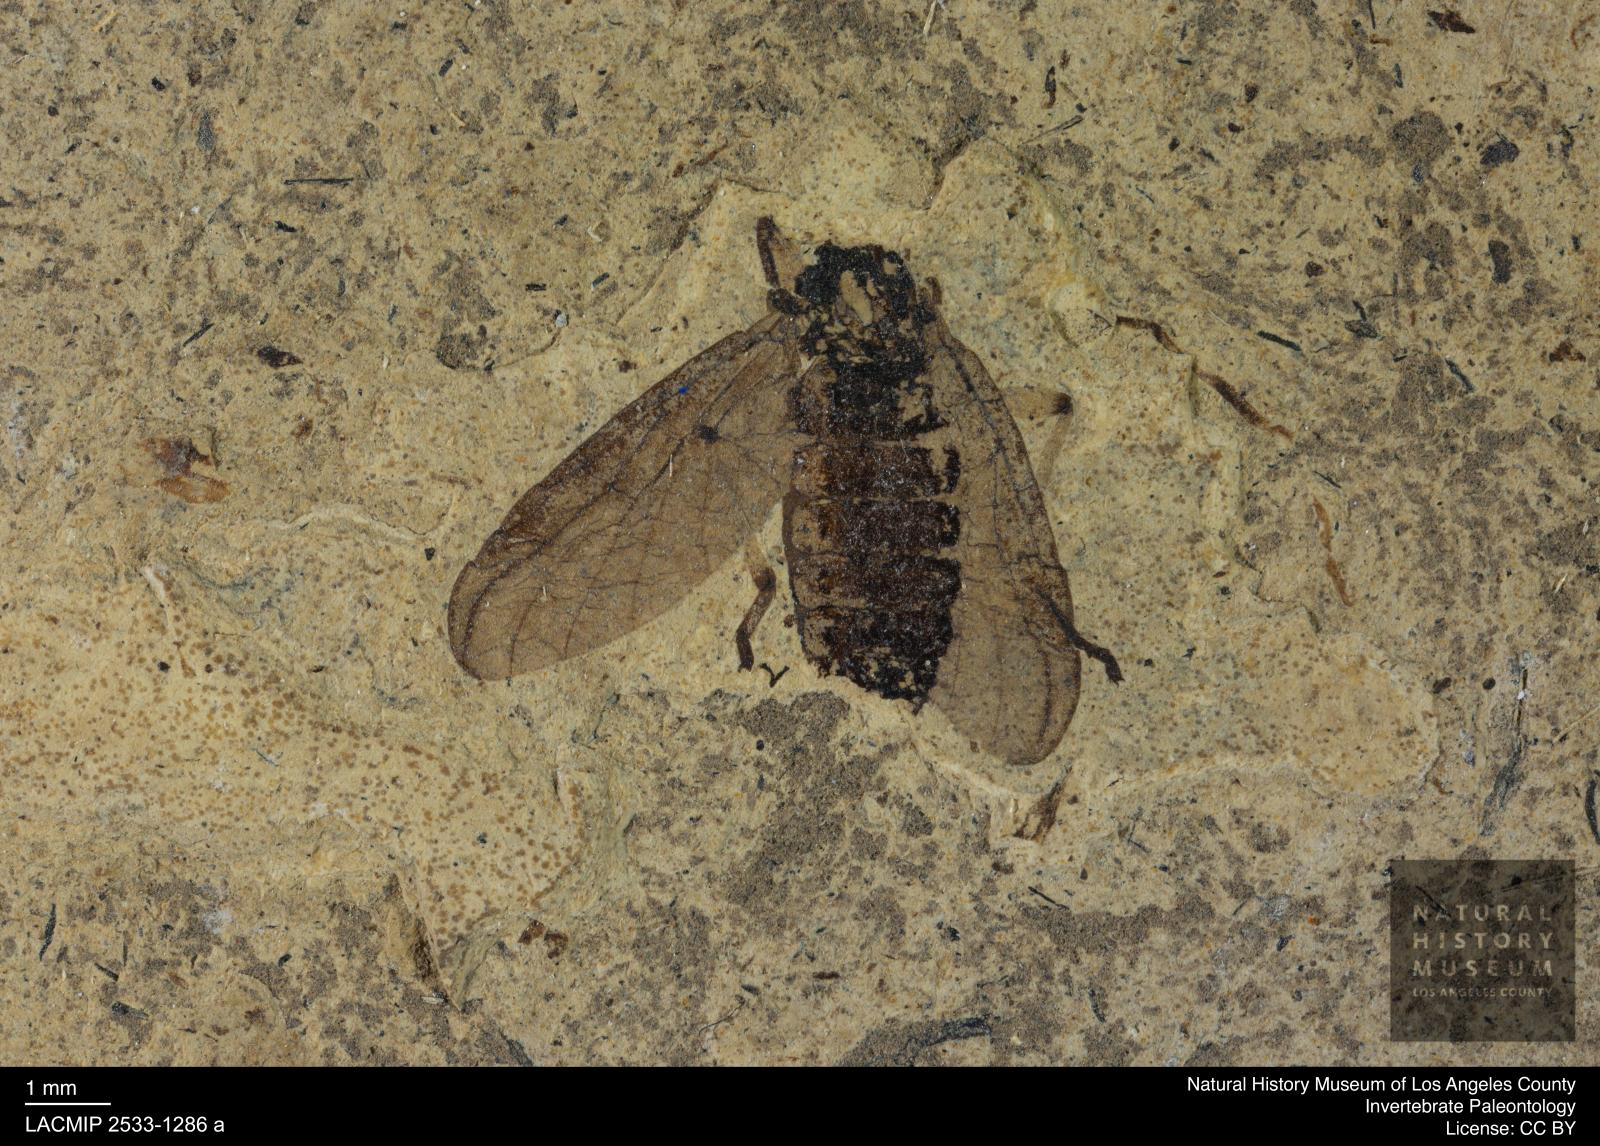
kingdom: Animalia
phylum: Arthropoda
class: Insecta
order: Diptera
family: Bibionidae
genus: Plecia
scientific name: Plecia pinguis
